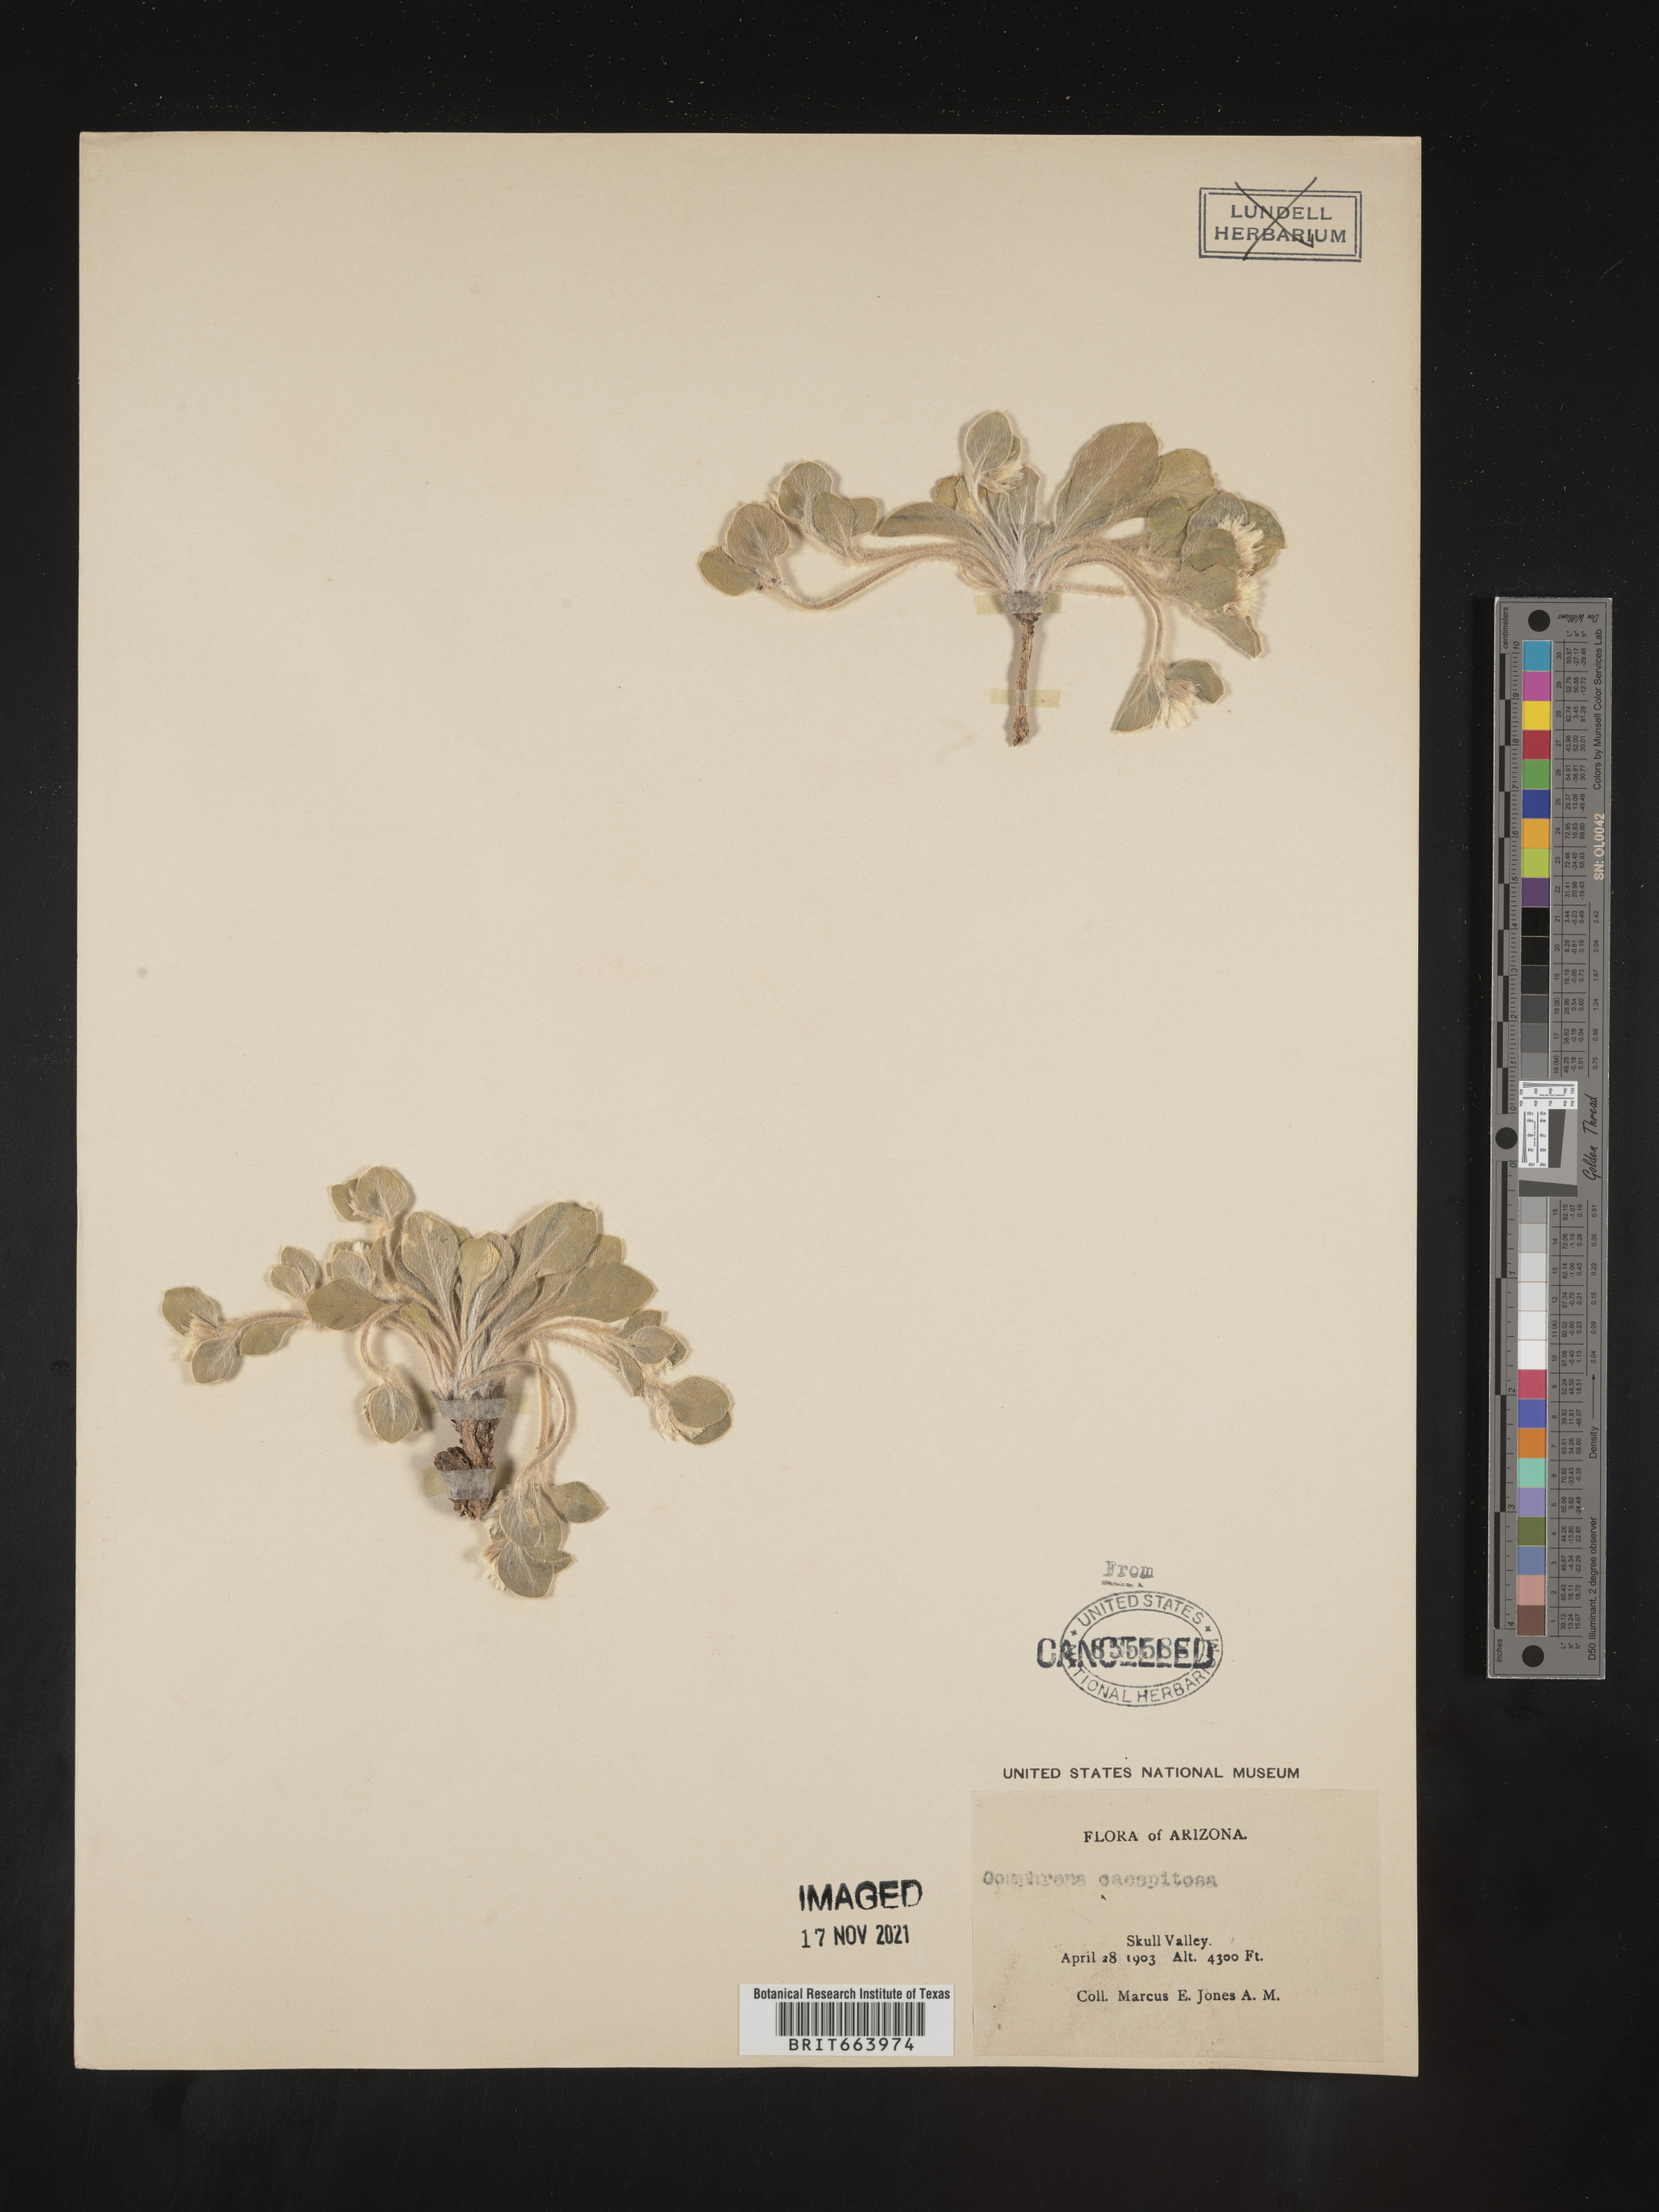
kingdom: Plantae
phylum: Tracheophyta
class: Magnoliopsida
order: Caryophyllales
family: Amaranthaceae
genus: Gomphrena
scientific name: Gomphrena
